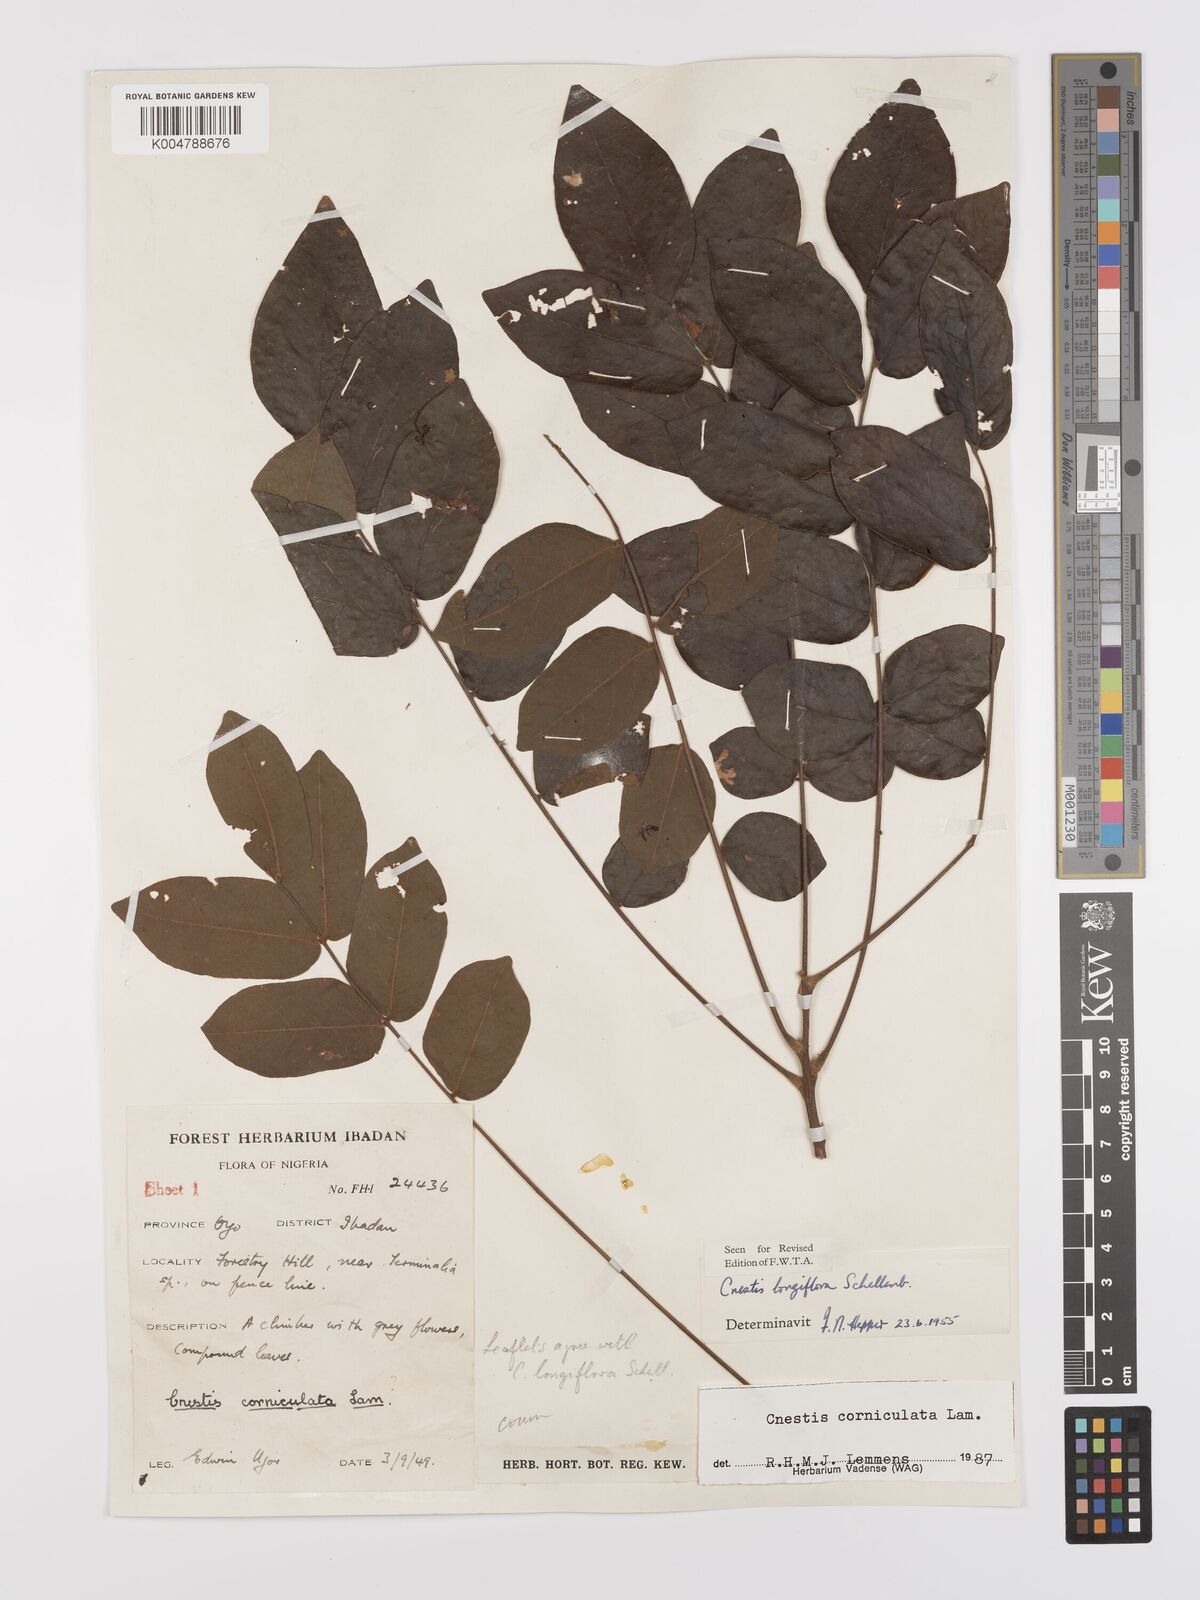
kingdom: Plantae
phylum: Tracheophyta
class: Magnoliopsida
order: Oxalidales
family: Connaraceae
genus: Cnestis
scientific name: Cnestis corniculata
